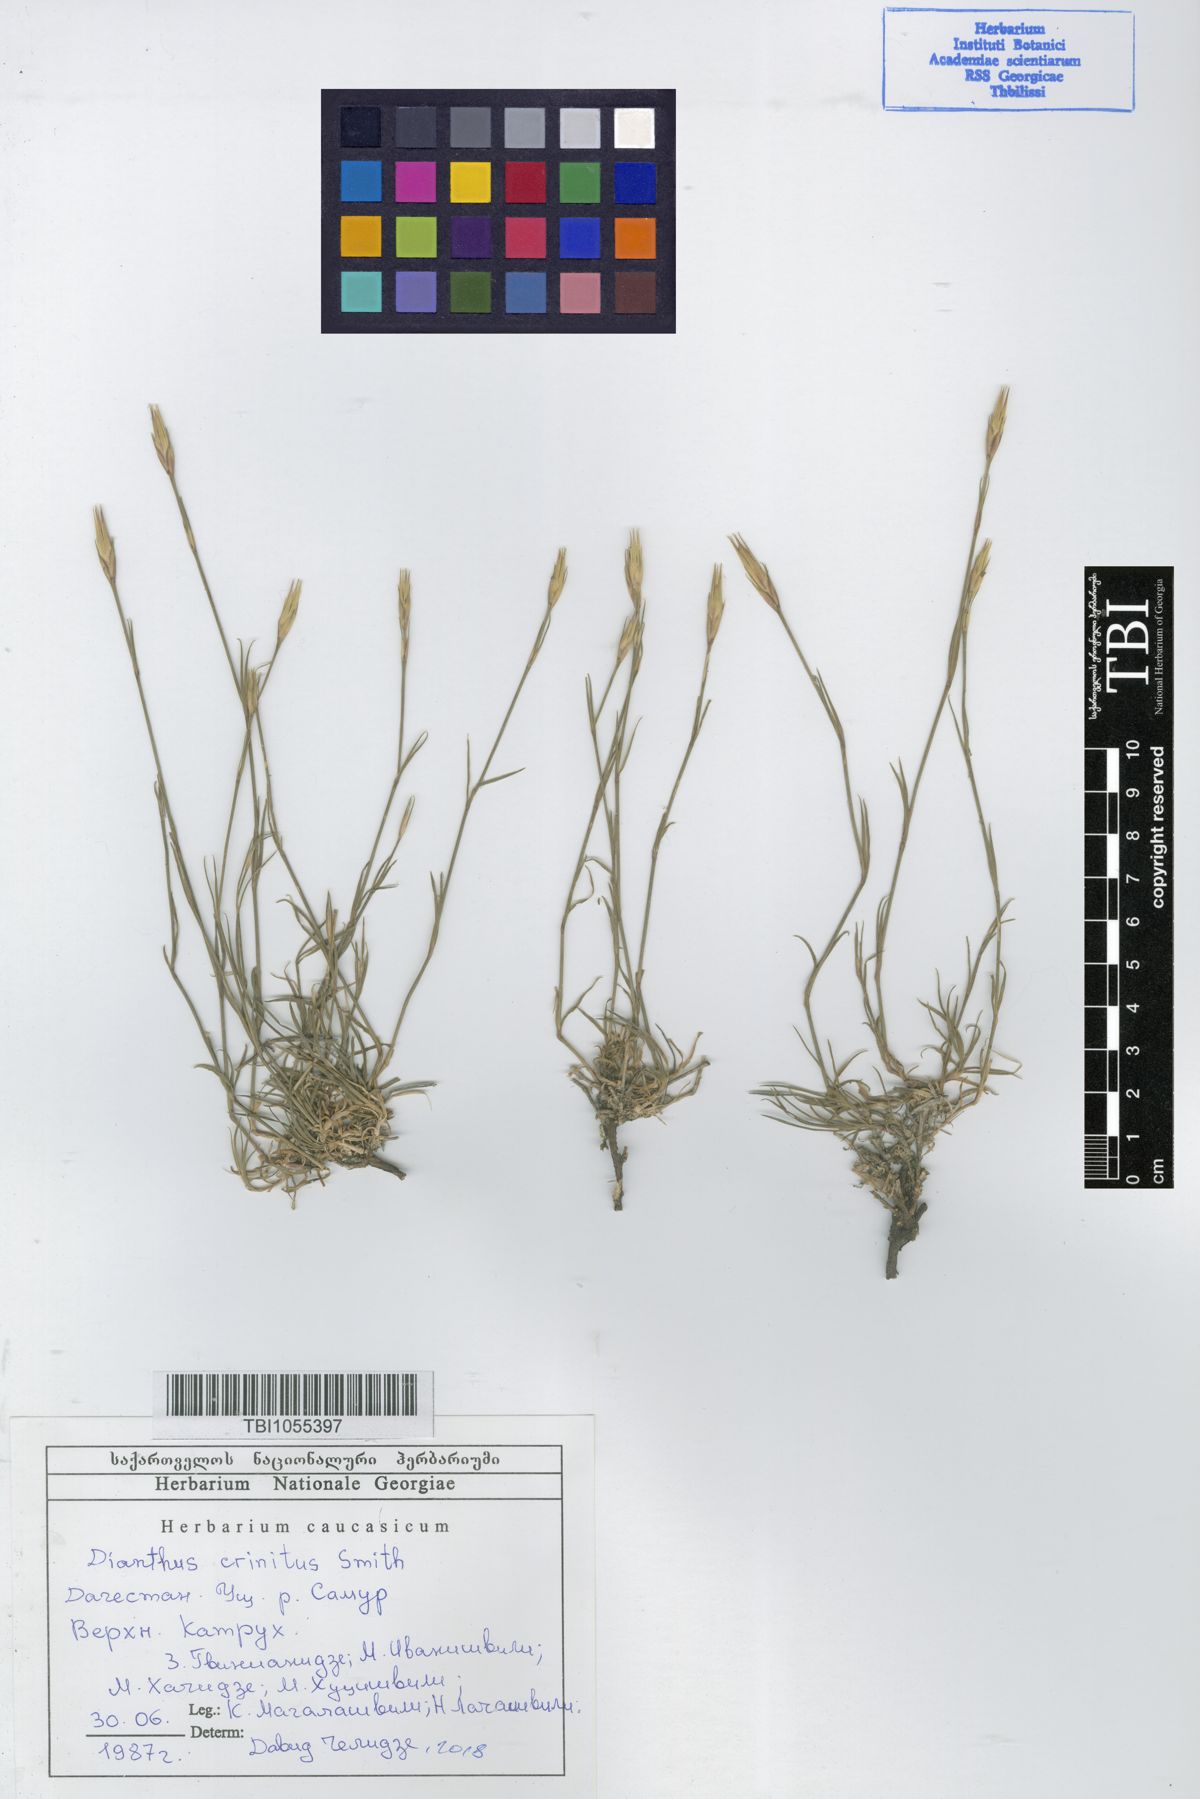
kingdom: Plantae
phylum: Tracheophyta
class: Magnoliopsida
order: Caryophyllales
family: Caryophyllaceae
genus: Dianthus
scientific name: Dianthus crinitus
